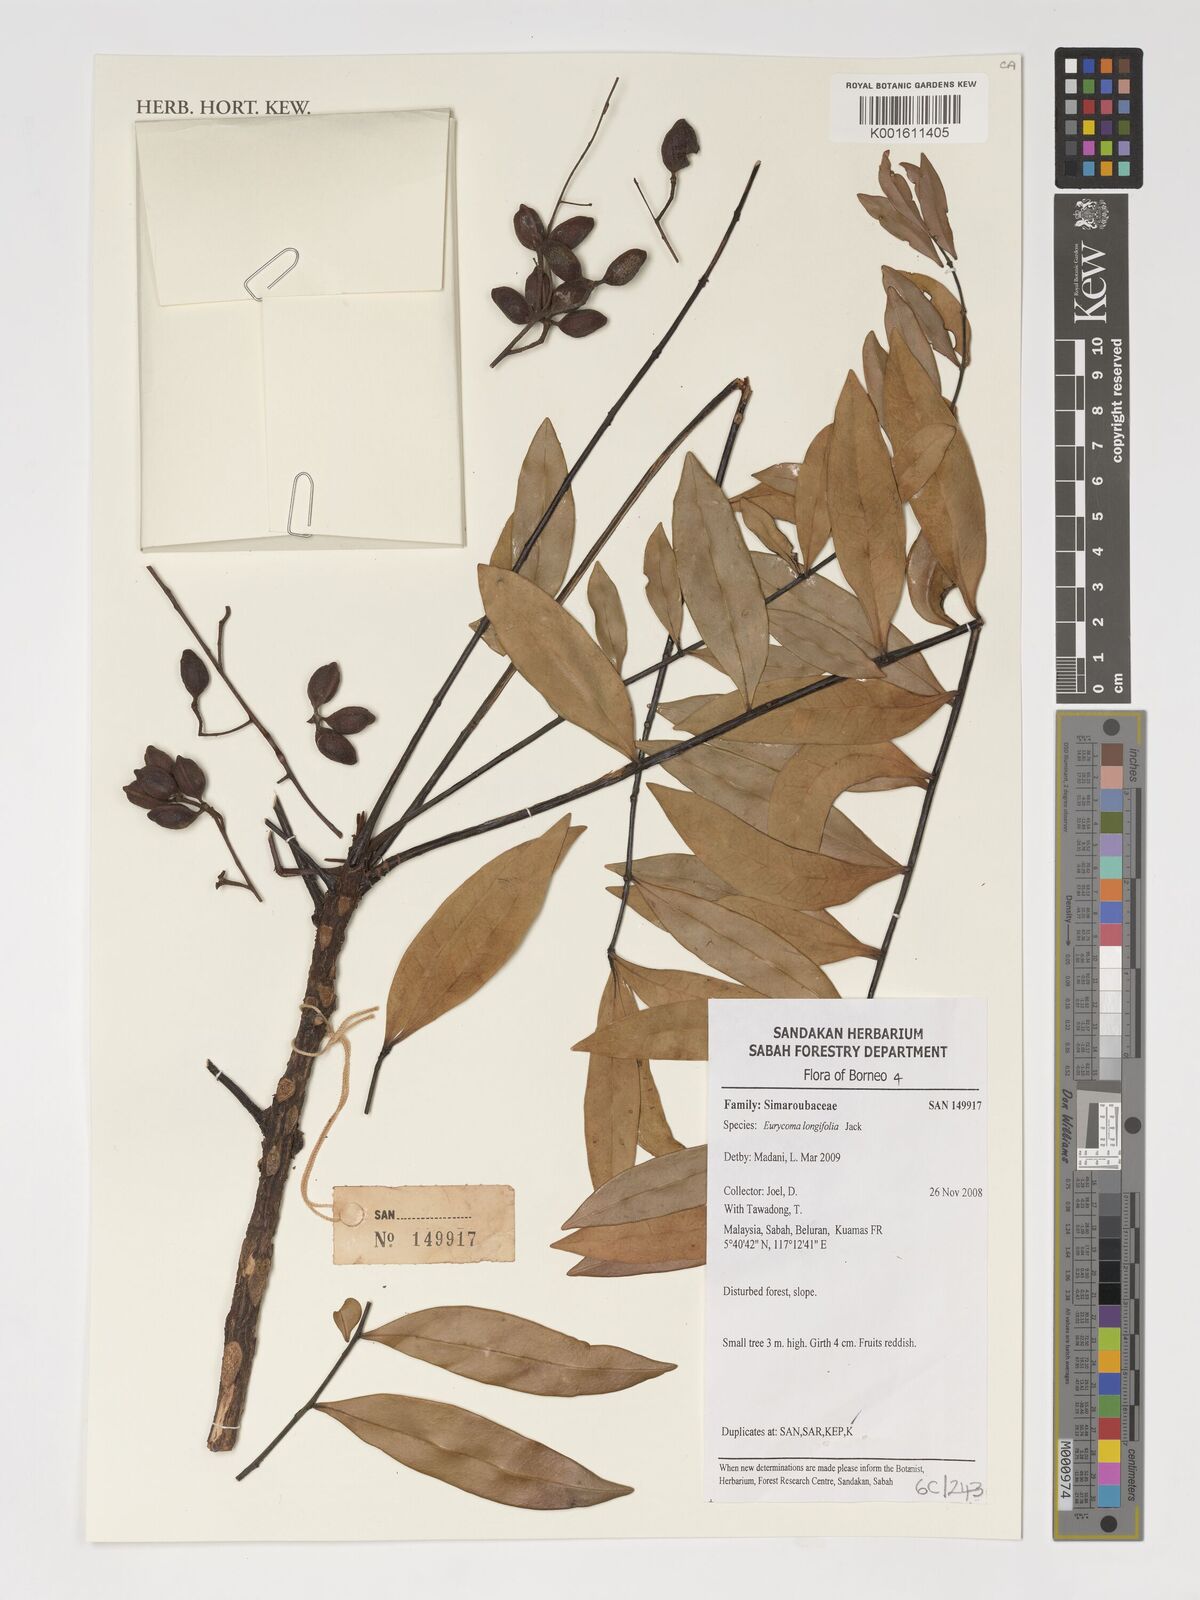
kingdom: Plantae
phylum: Tracheophyta
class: Magnoliopsida
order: Sapindales
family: Simaroubaceae
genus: Eurycoma
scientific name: Eurycoma longifolia
